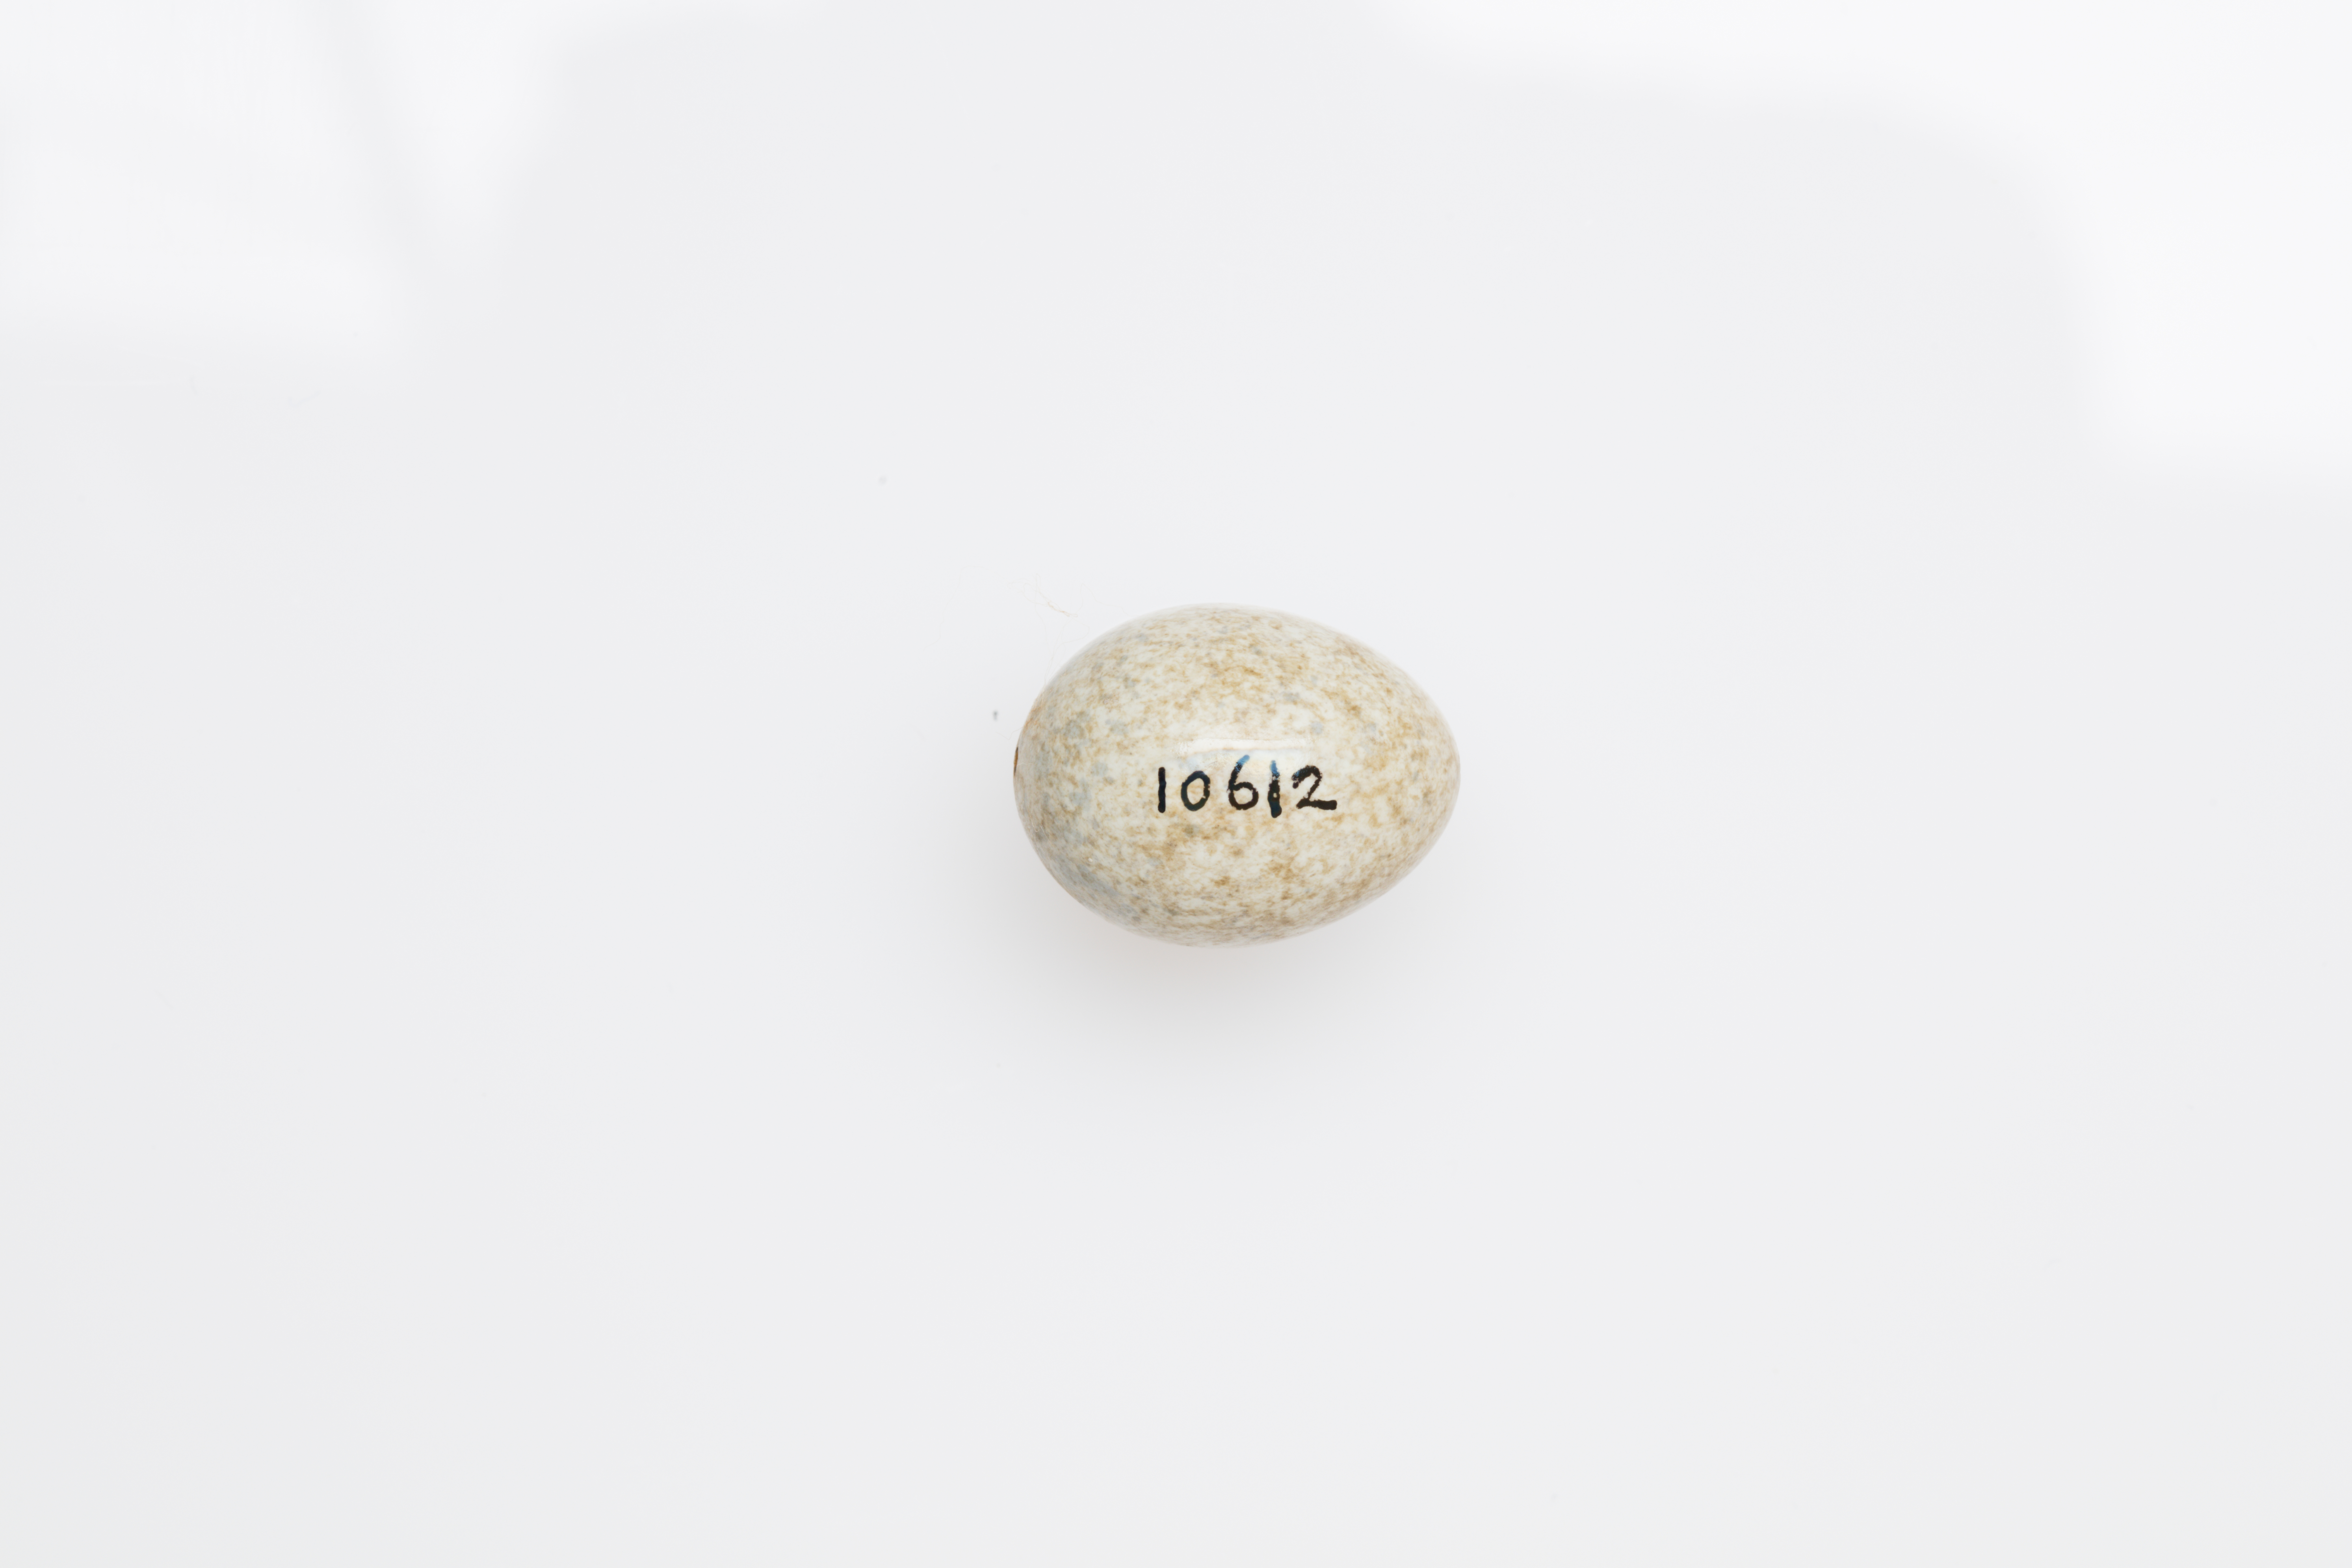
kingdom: Animalia
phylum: Chordata
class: Aves
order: Passeriformes
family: Motacillidae
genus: Motacilla
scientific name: Motacilla cinerea
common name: Grey wagtail
